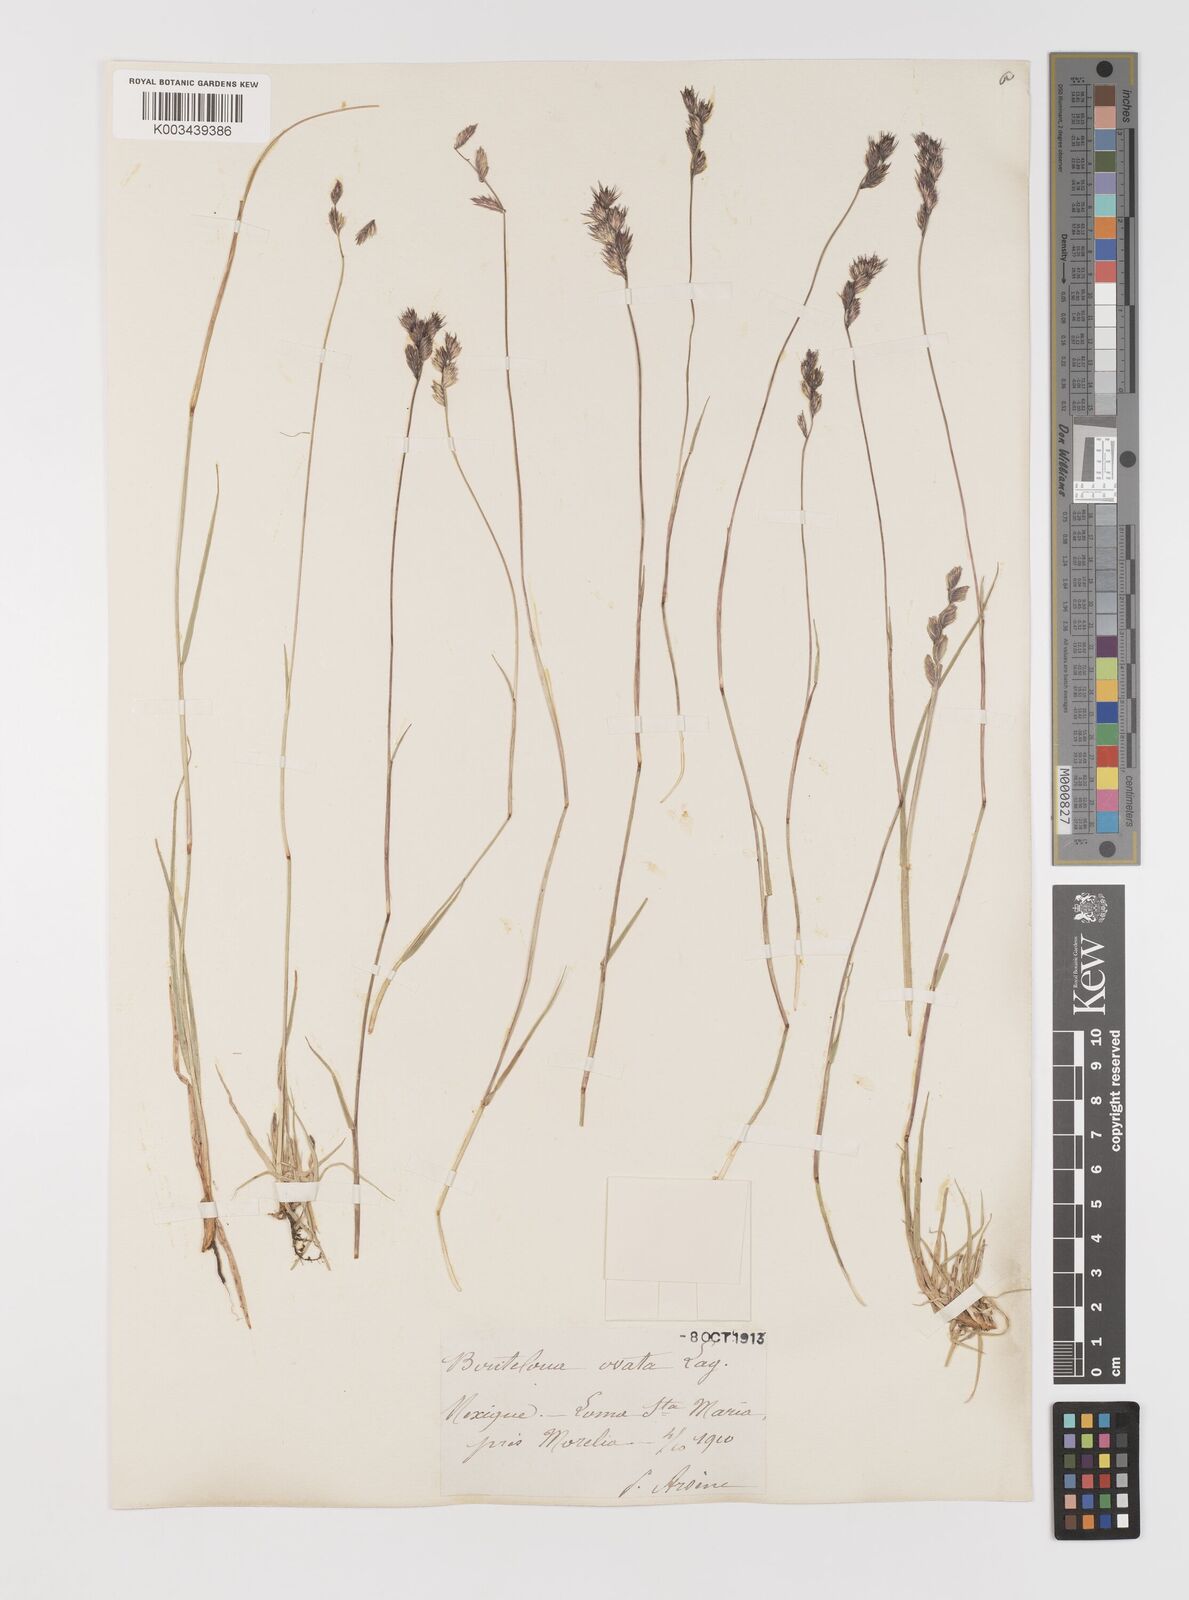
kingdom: Plantae
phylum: Tracheophyta
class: Liliopsida
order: Poales
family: Poaceae
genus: Bouteloua
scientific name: Bouteloua chondrosioides
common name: Sprucetop grama
